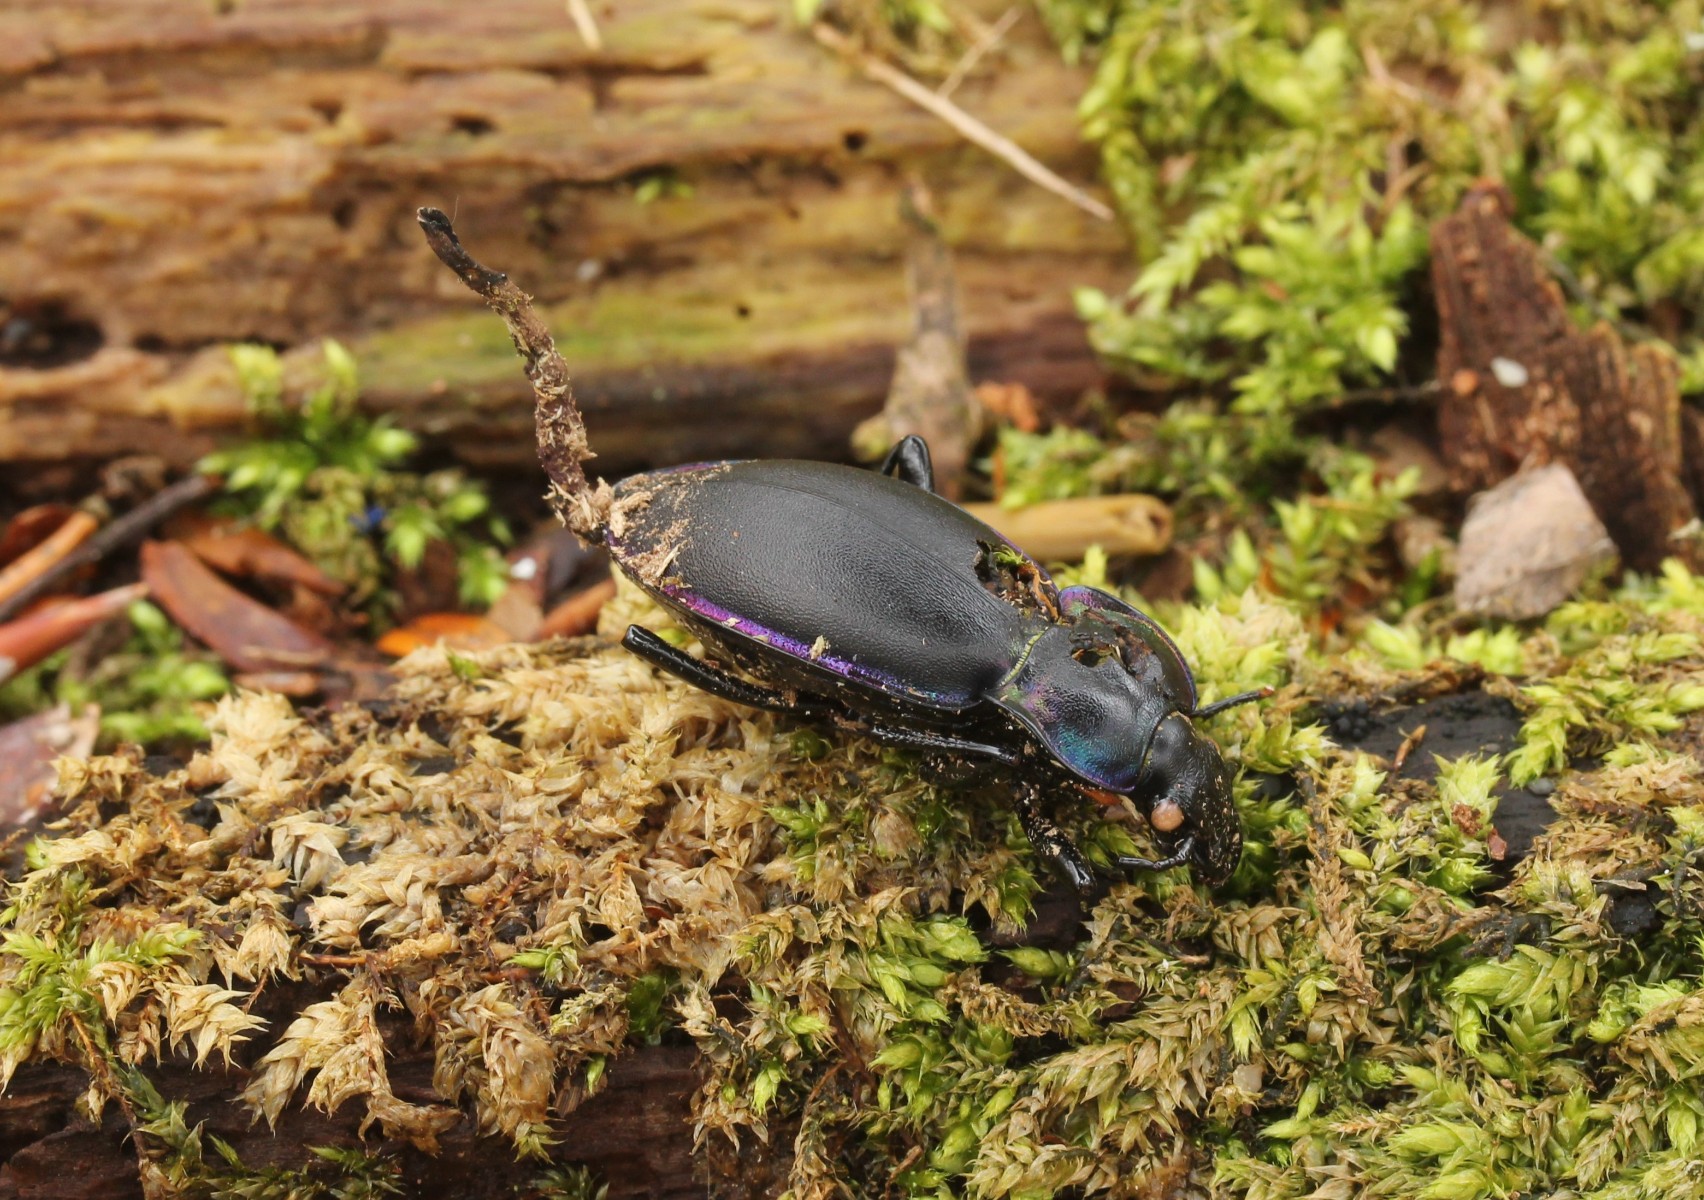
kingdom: Fungi
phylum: Ascomycota
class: Sordariomycetes
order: Hypocreales
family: Ophiocordycipitaceae
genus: Ophiocordyceps
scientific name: Ophiocordyceps entomorrhiza
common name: grå snyltekølle
